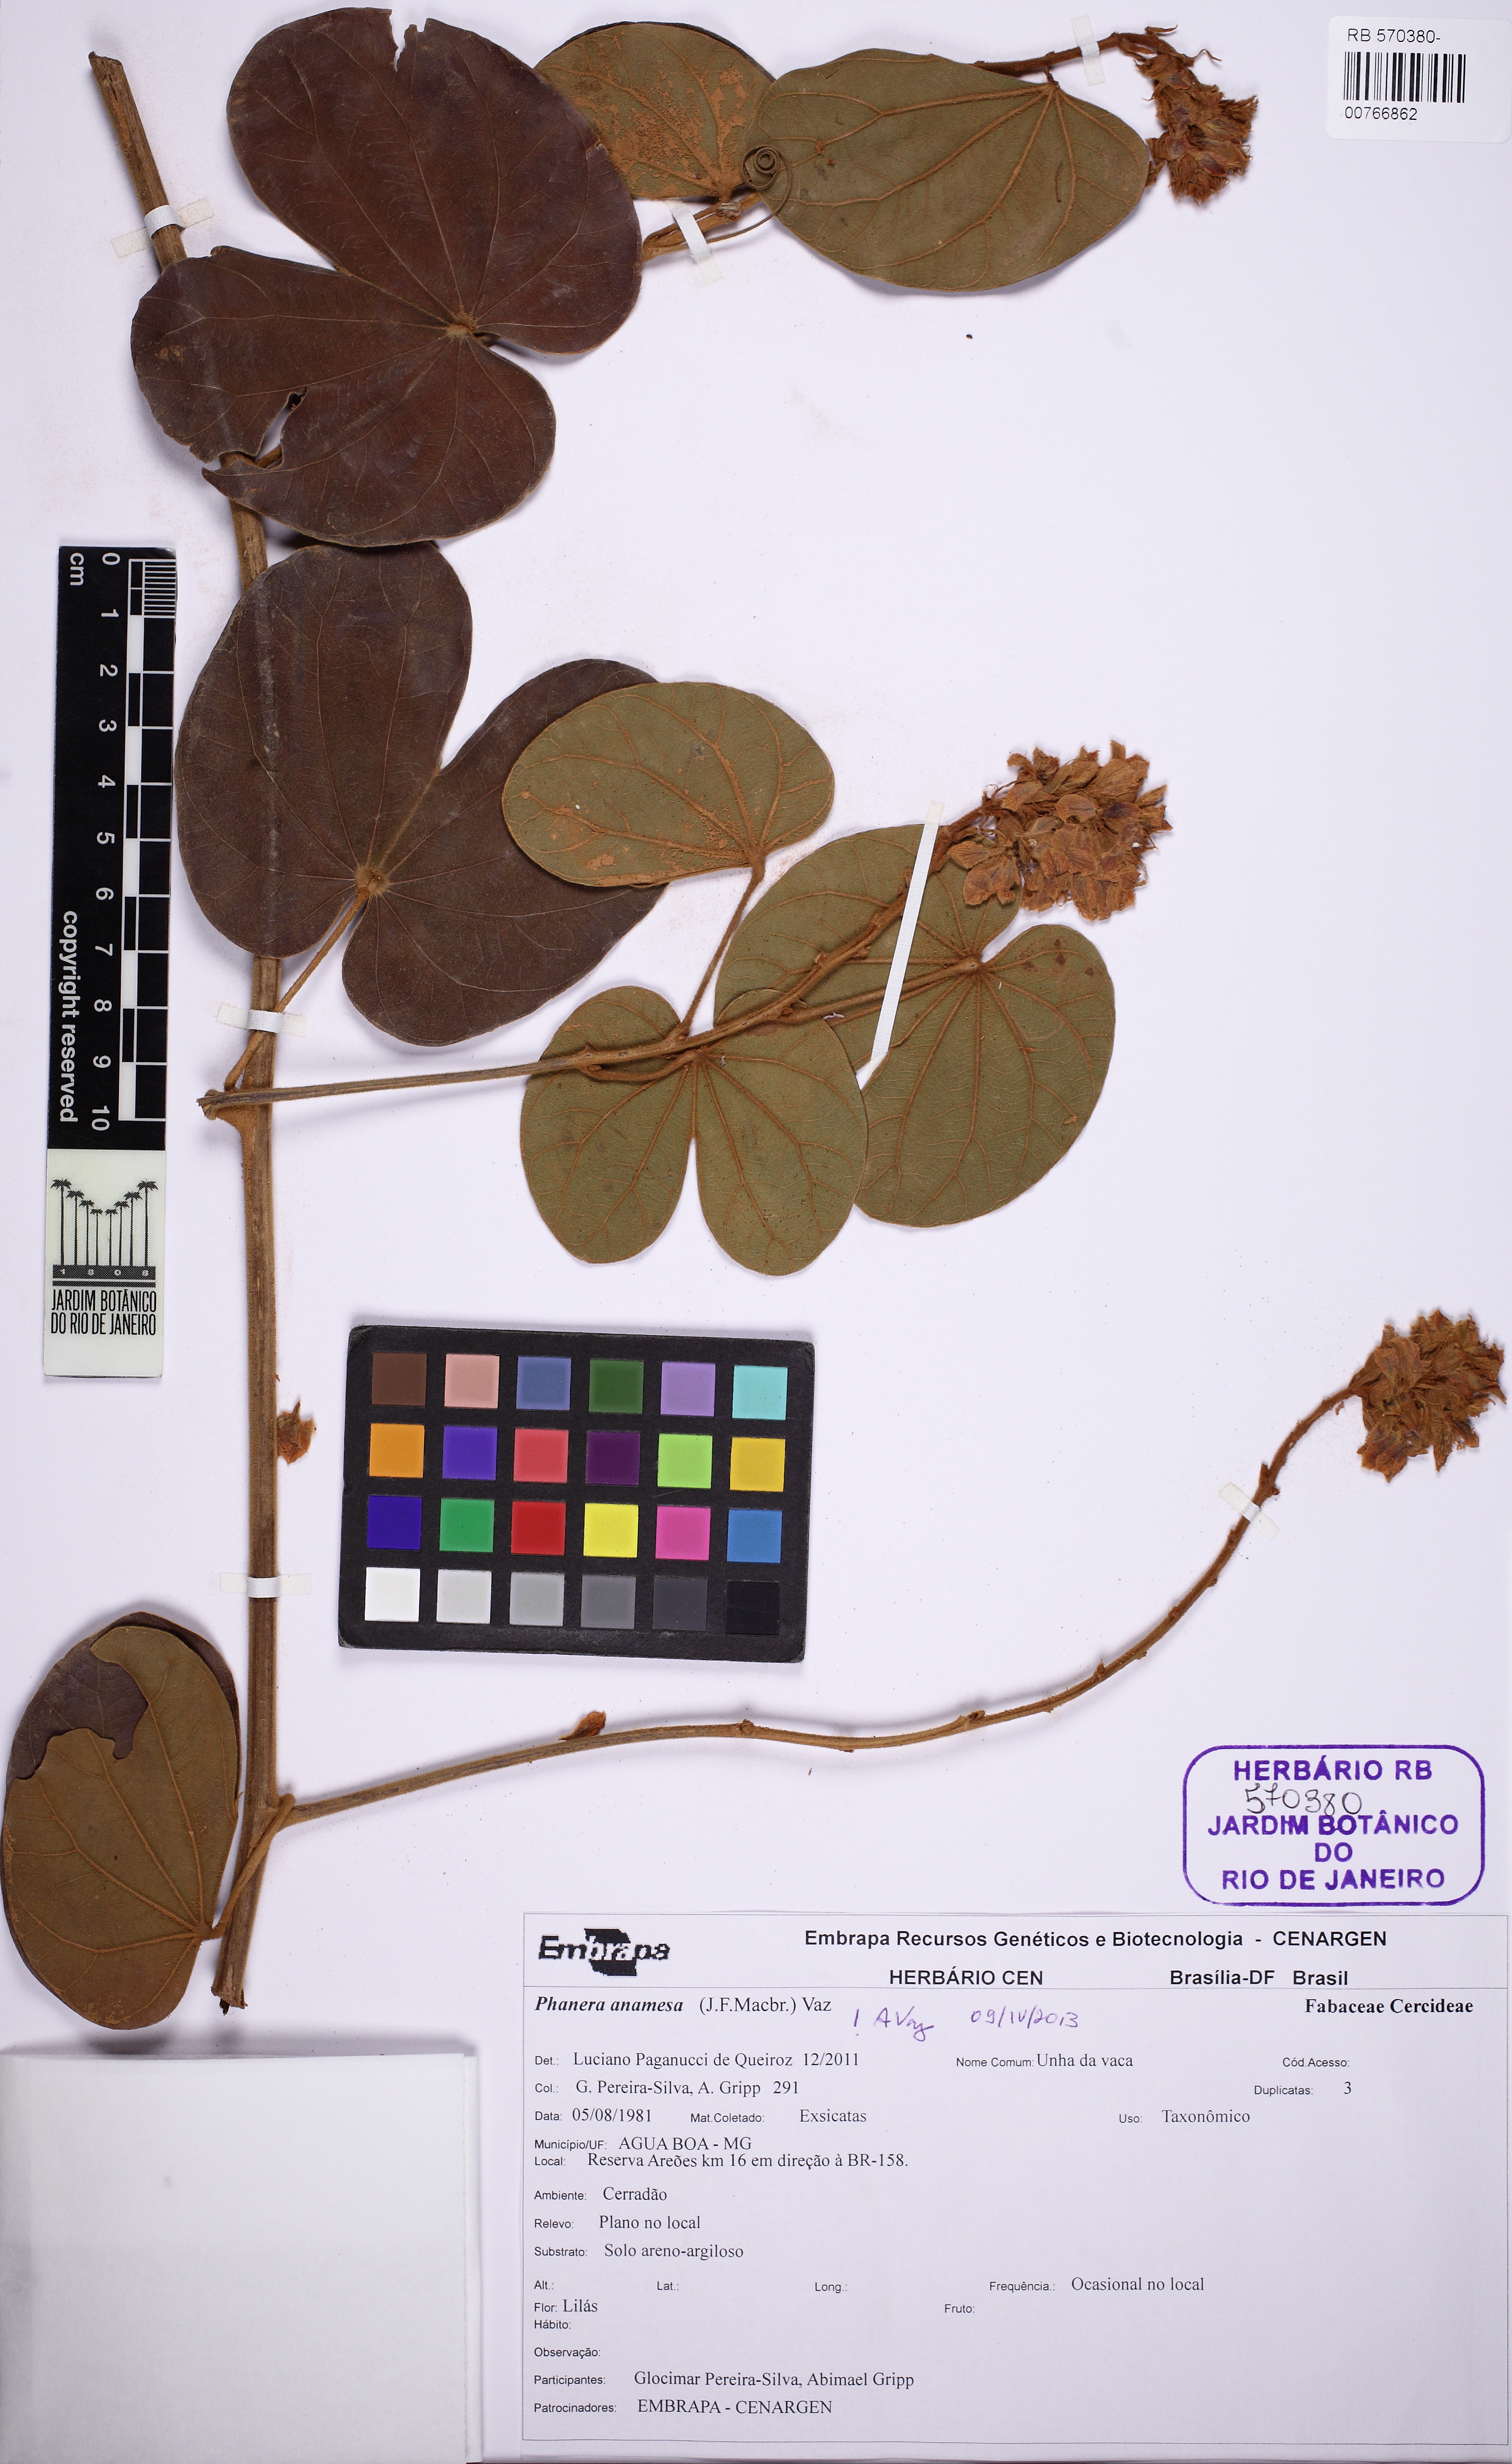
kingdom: Plantae
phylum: Tracheophyta
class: Magnoliopsida
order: Fabales
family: Fabaceae
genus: Schnella
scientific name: Schnella anamesa
